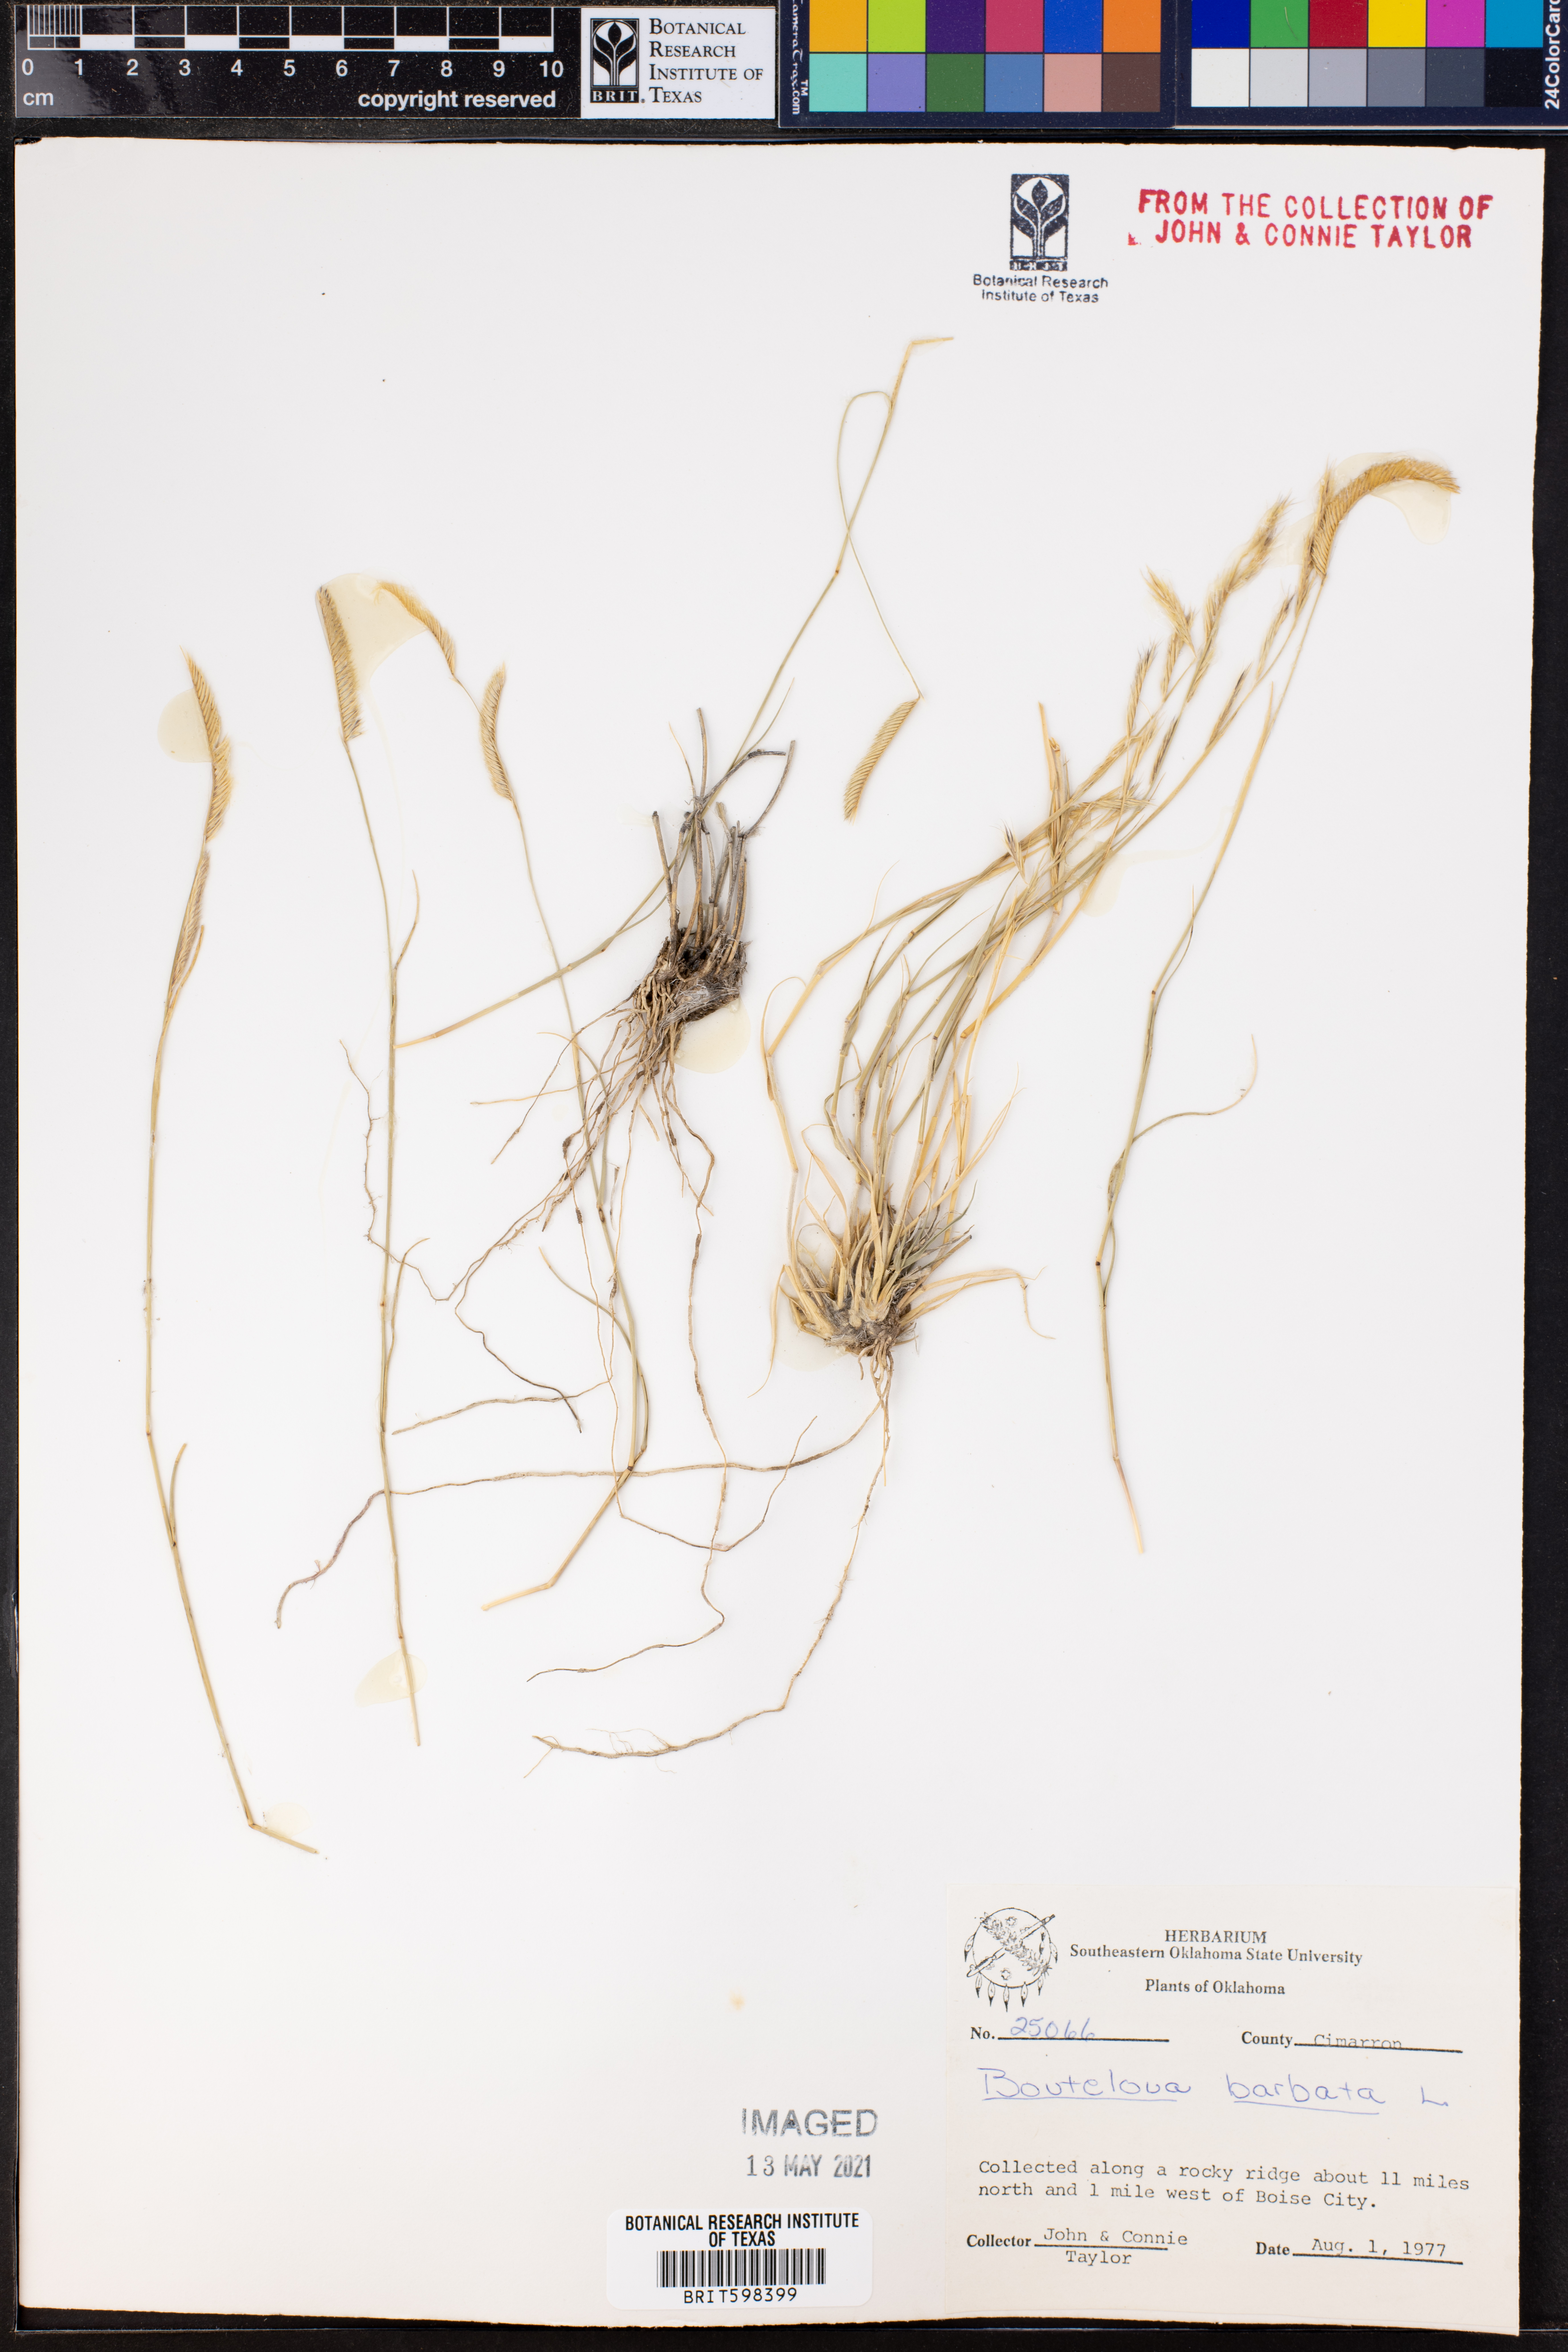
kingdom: Plantae
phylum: Tracheophyta
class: Liliopsida
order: Poales
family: Poaceae
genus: Bouteloua
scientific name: Bouteloua barbata
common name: Six-weeks grama
